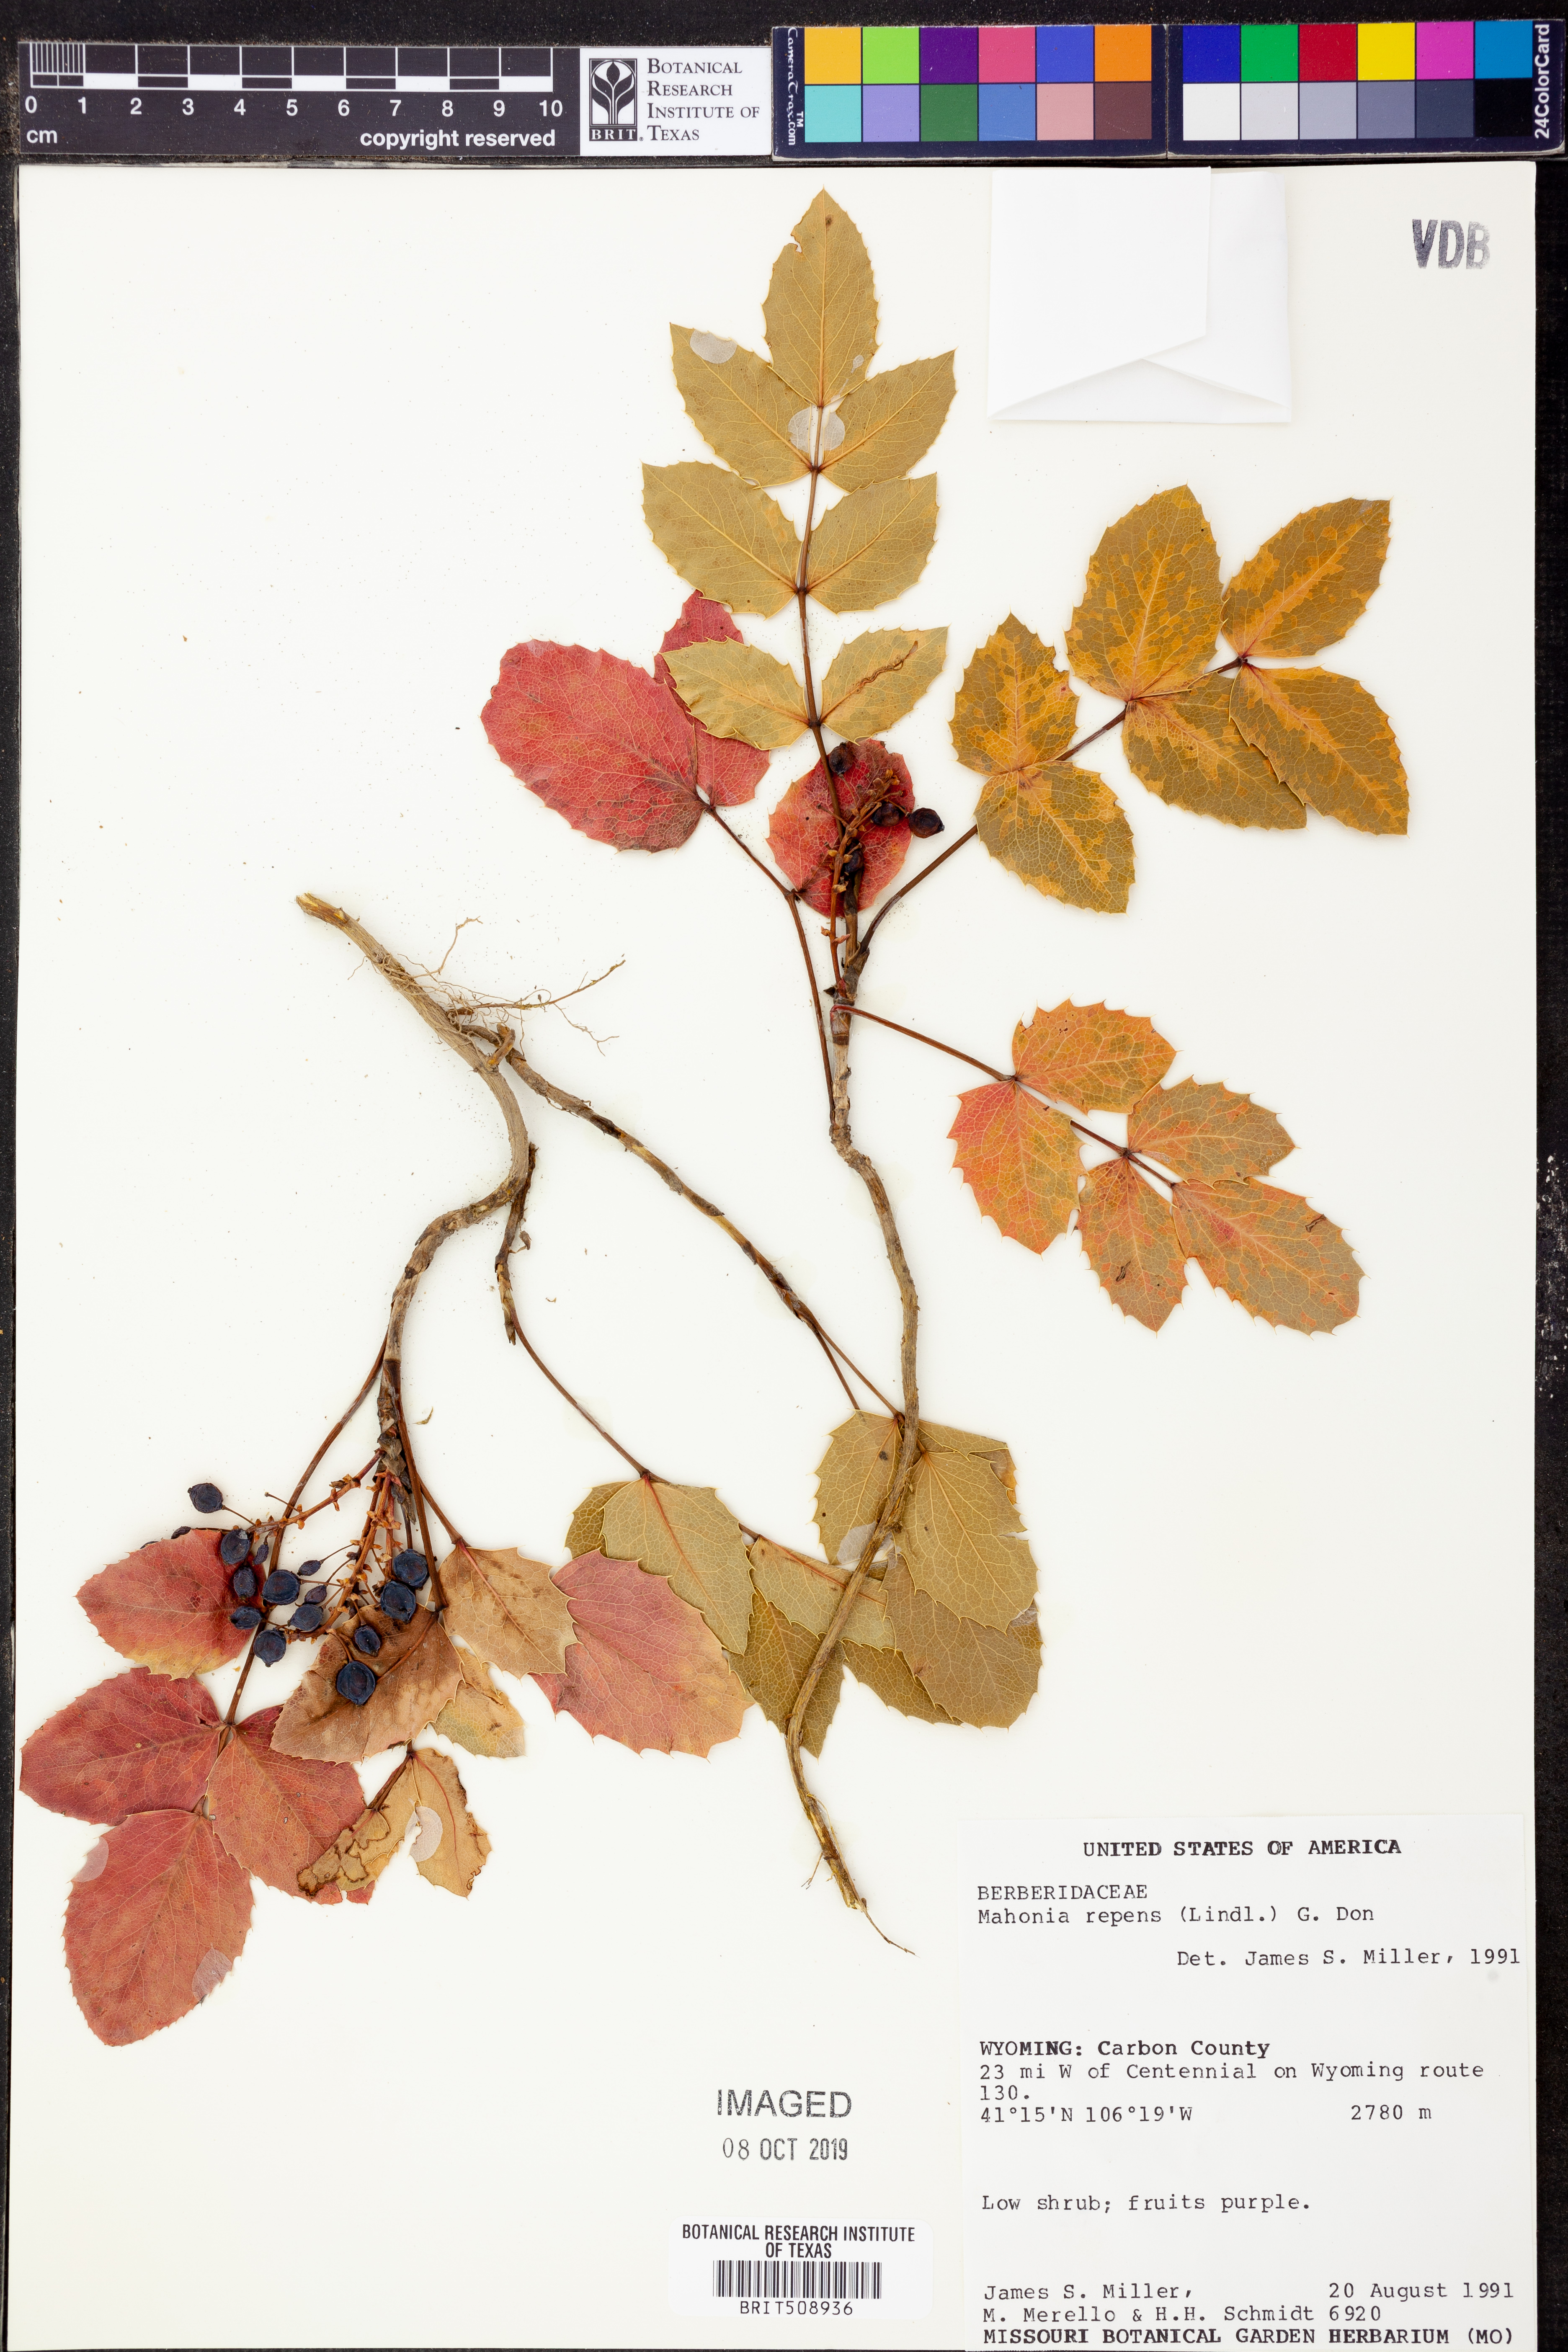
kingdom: Plantae
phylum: Tracheophyta
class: Magnoliopsida
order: Ranunculales
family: Berberidaceae
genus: Mahonia
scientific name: Mahonia repens
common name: Creeping oregon-grape
